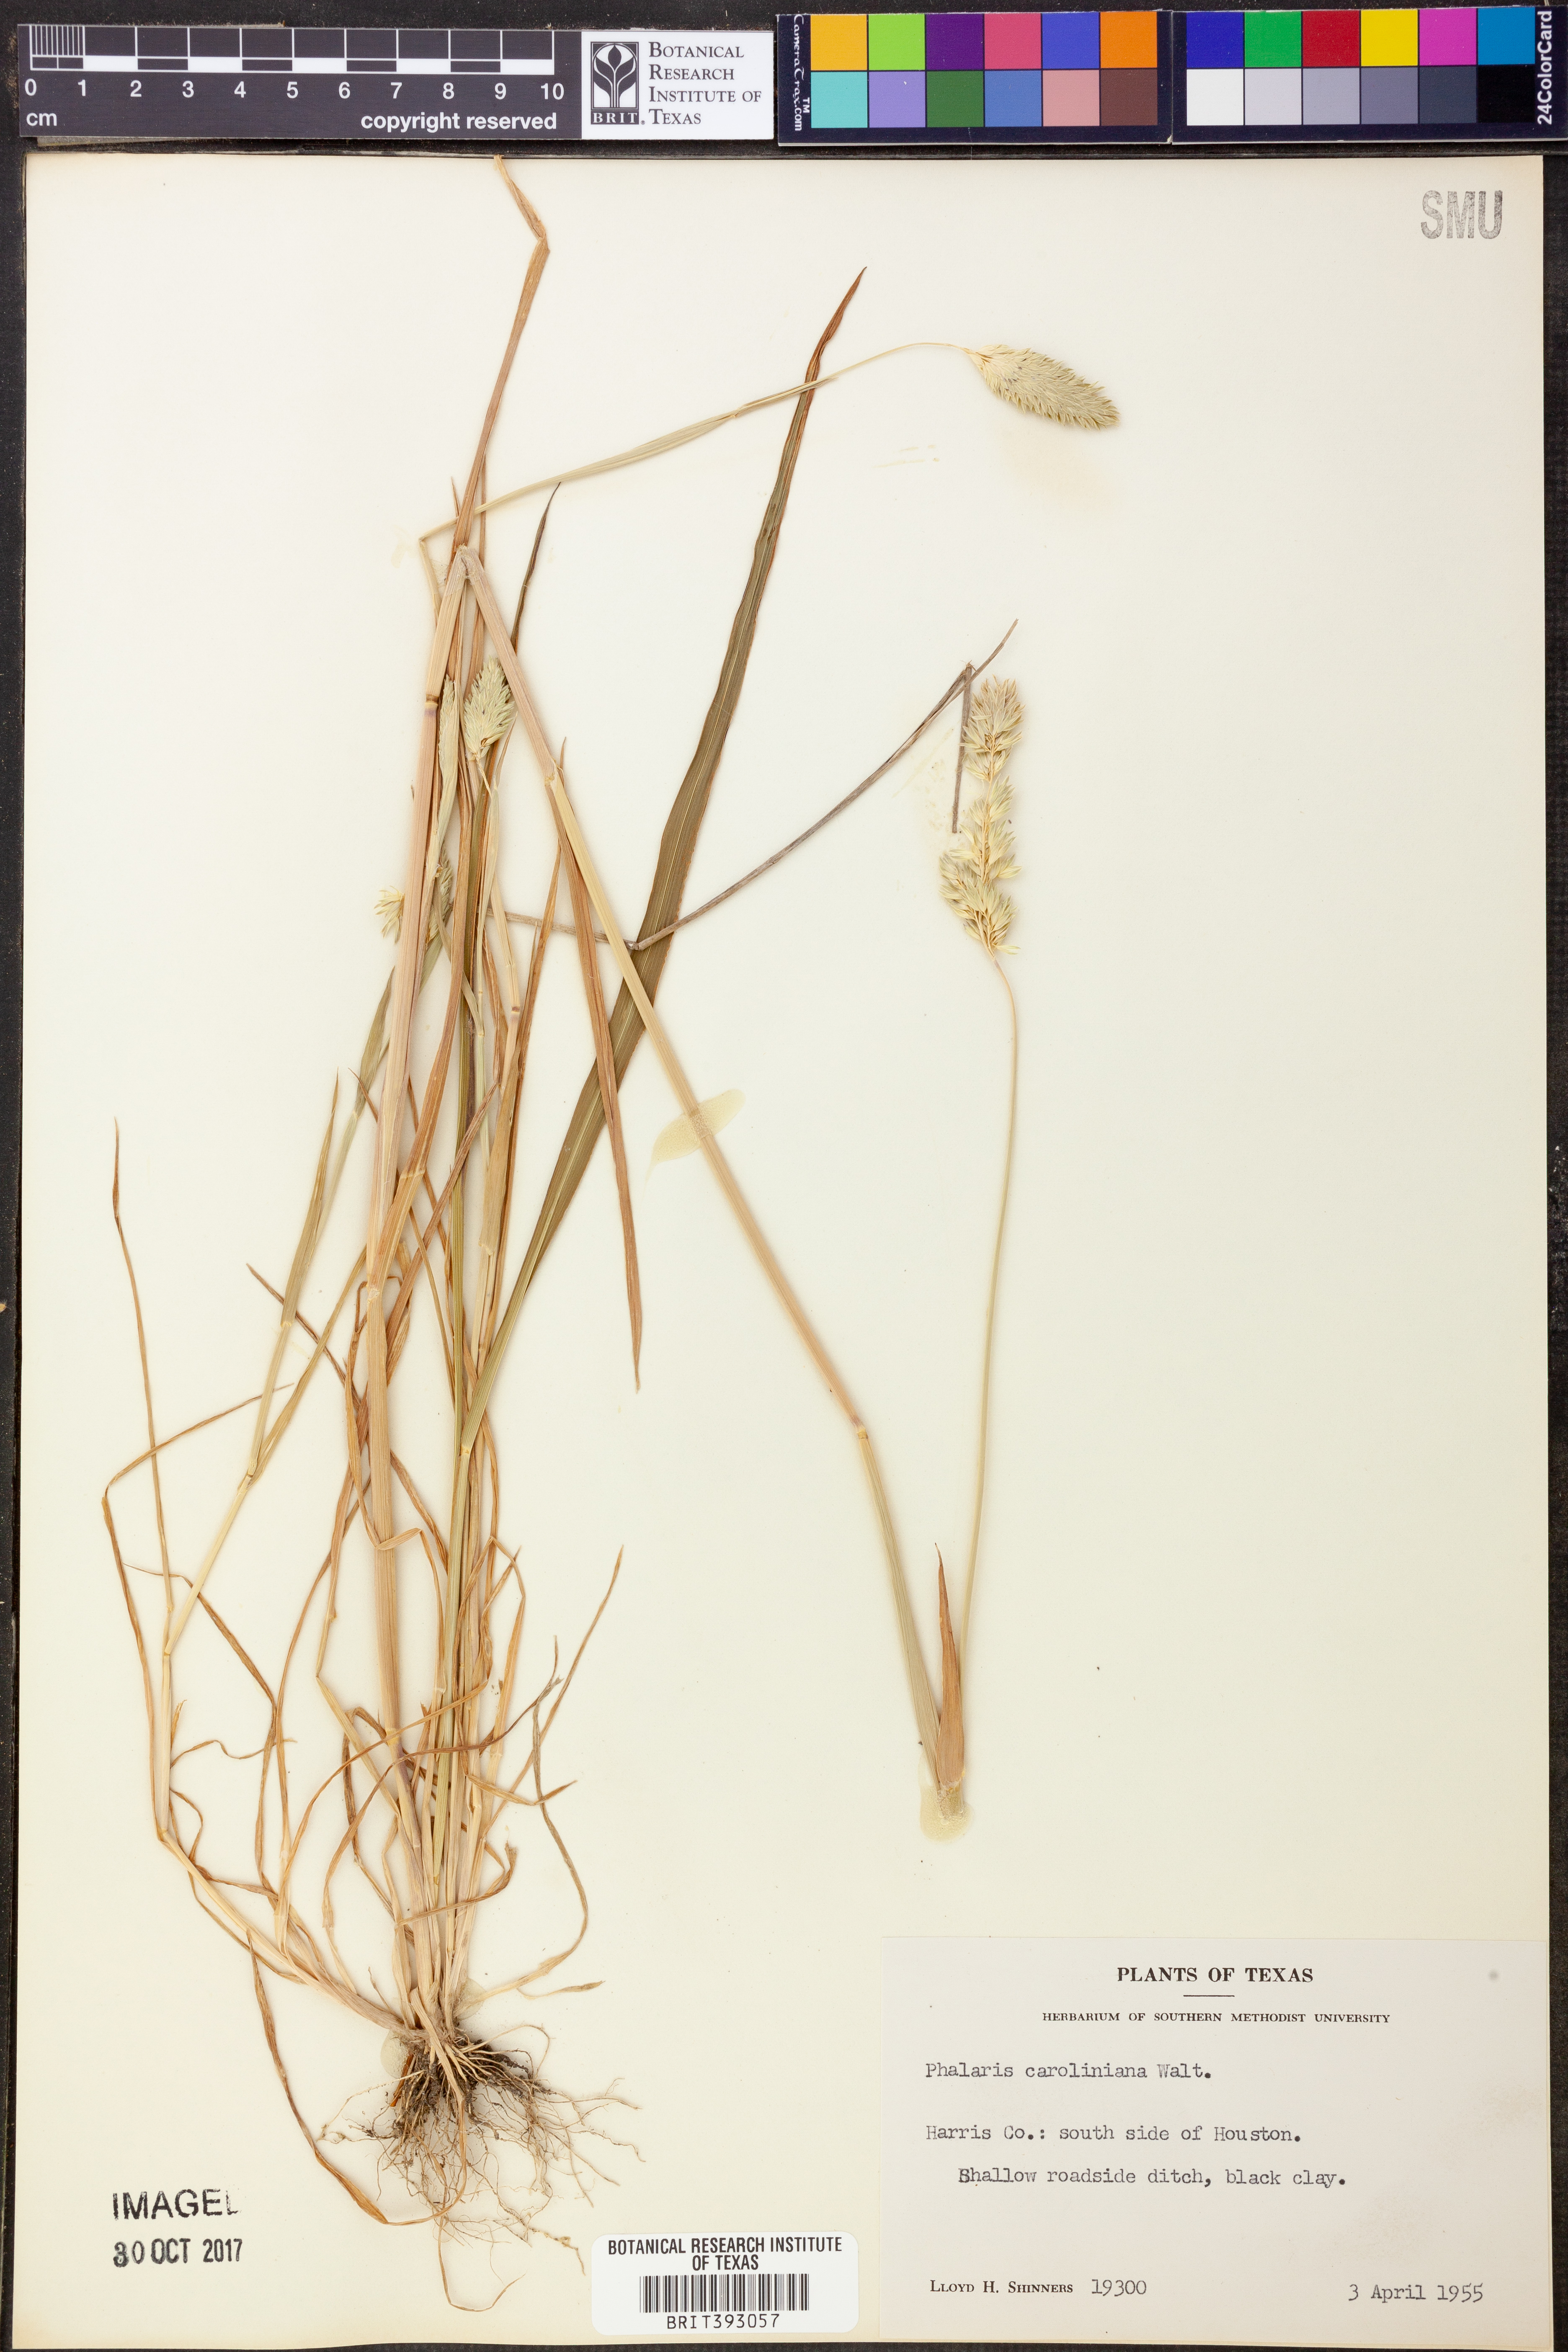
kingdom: Plantae
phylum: Tracheophyta
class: Liliopsida
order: Poales
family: Poaceae
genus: Phalaris
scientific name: Phalaris caroliniana
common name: May grass
